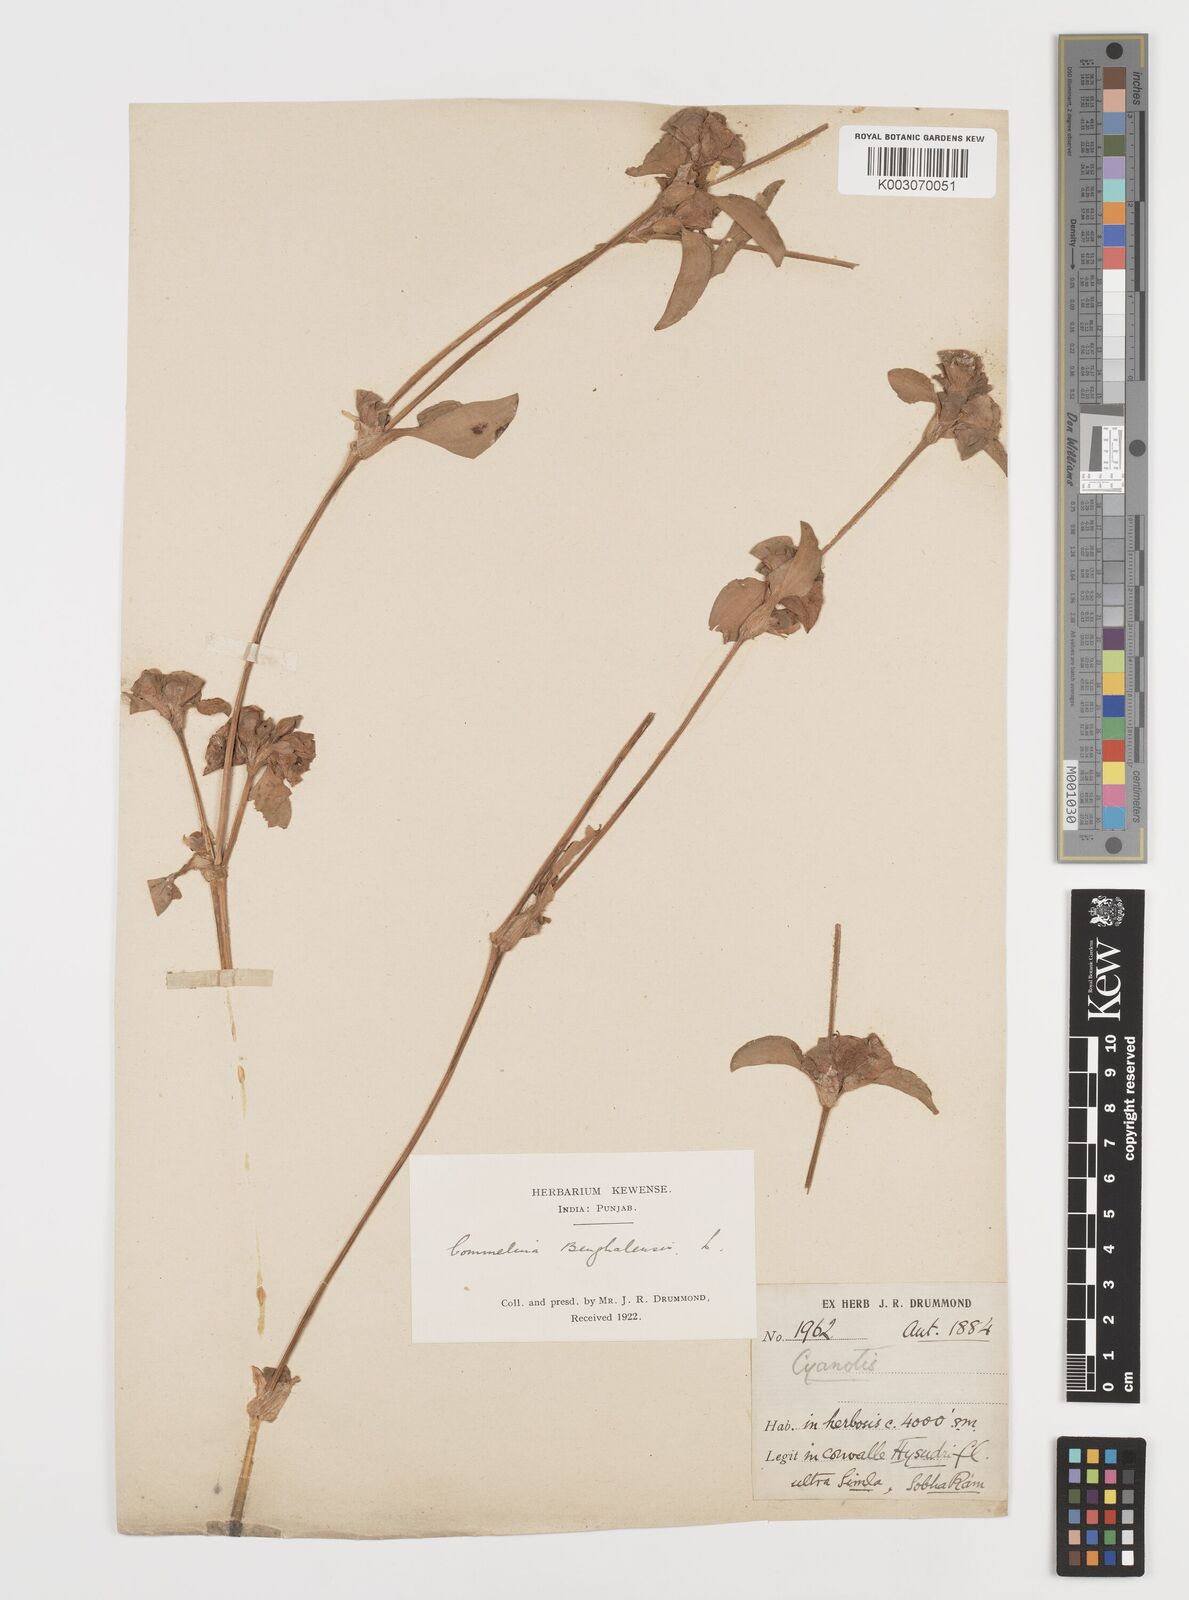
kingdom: Plantae
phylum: Tracheophyta
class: Liliopsida
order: Commelinales
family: Commelinaceae
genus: Commelina
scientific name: Commelina benghalensis
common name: Jio
